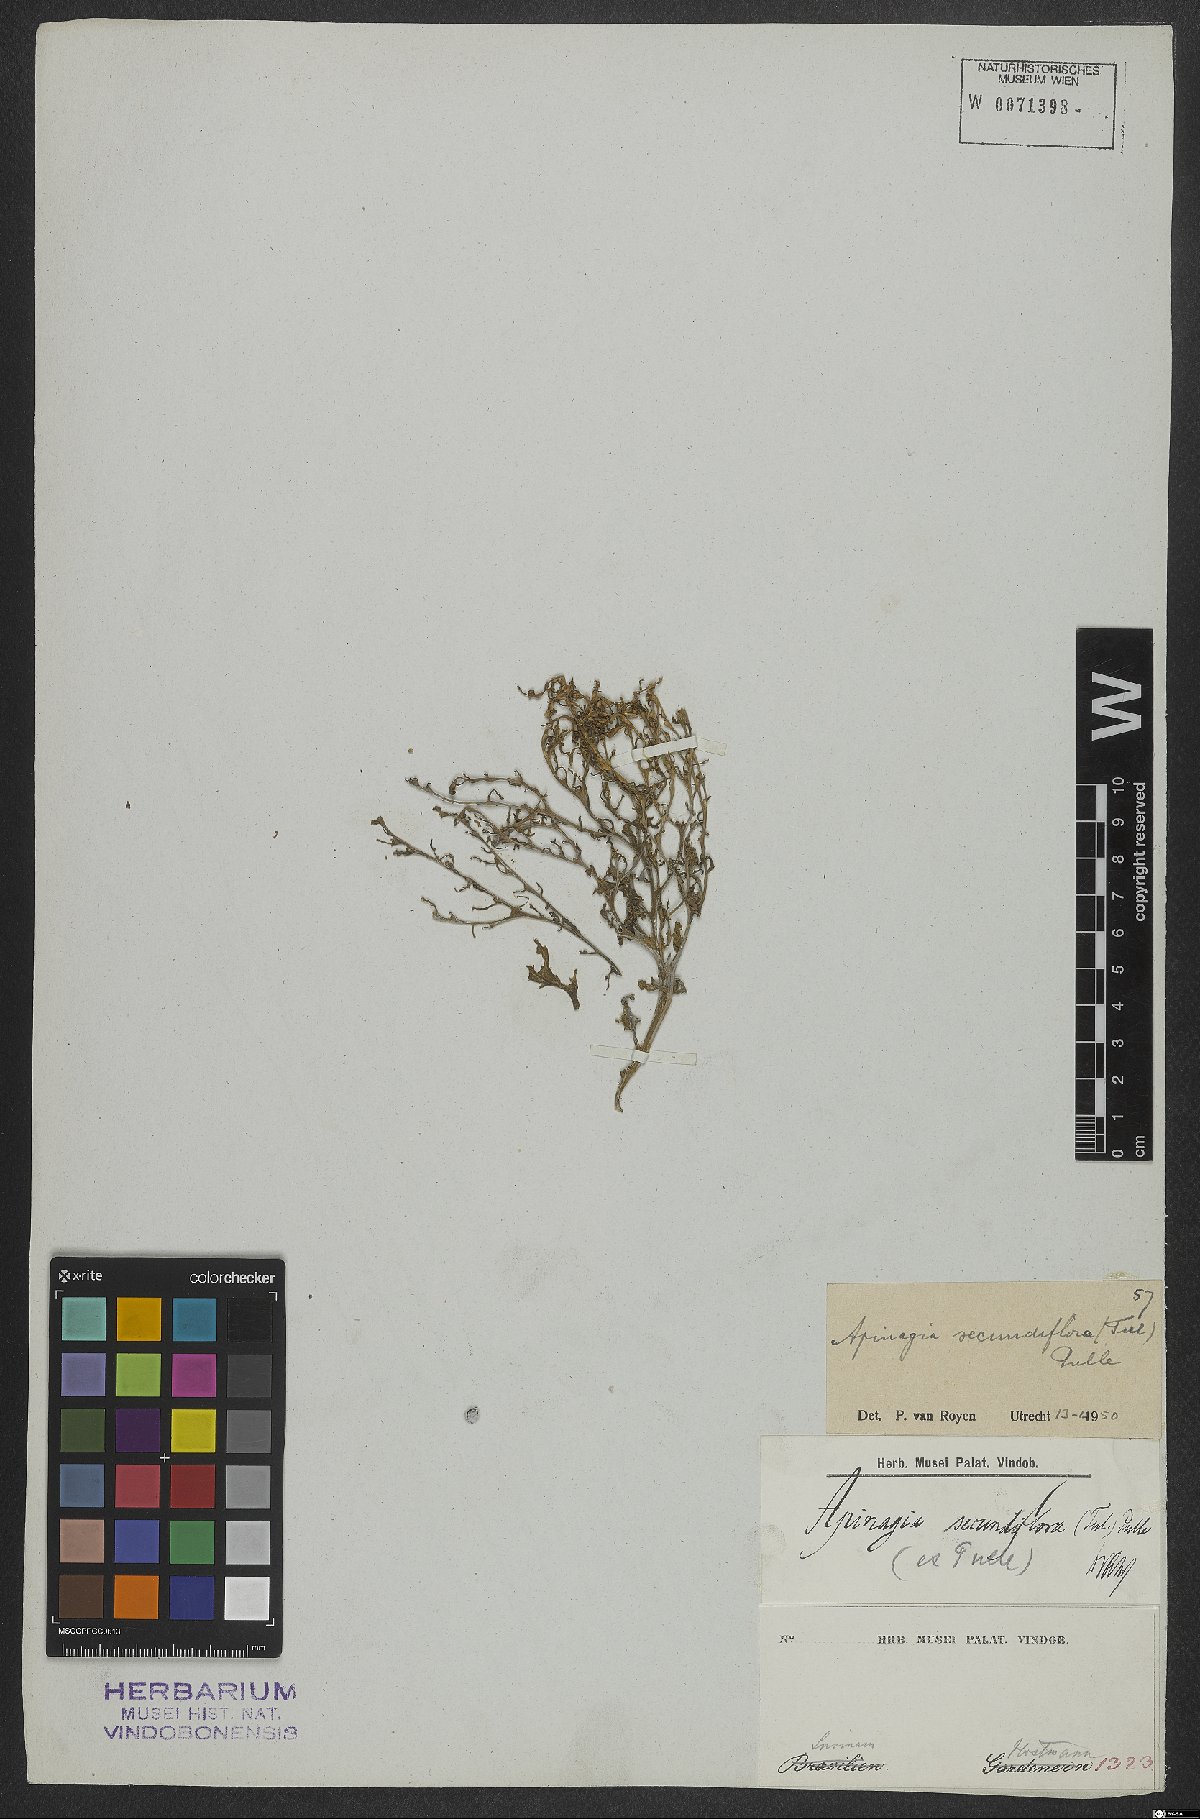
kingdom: Plantae
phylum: Tracheophyta
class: Magnoliopsida
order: Malpighiales
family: Podostemaceae
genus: Apinagia
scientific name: Apinagia secundiflora
